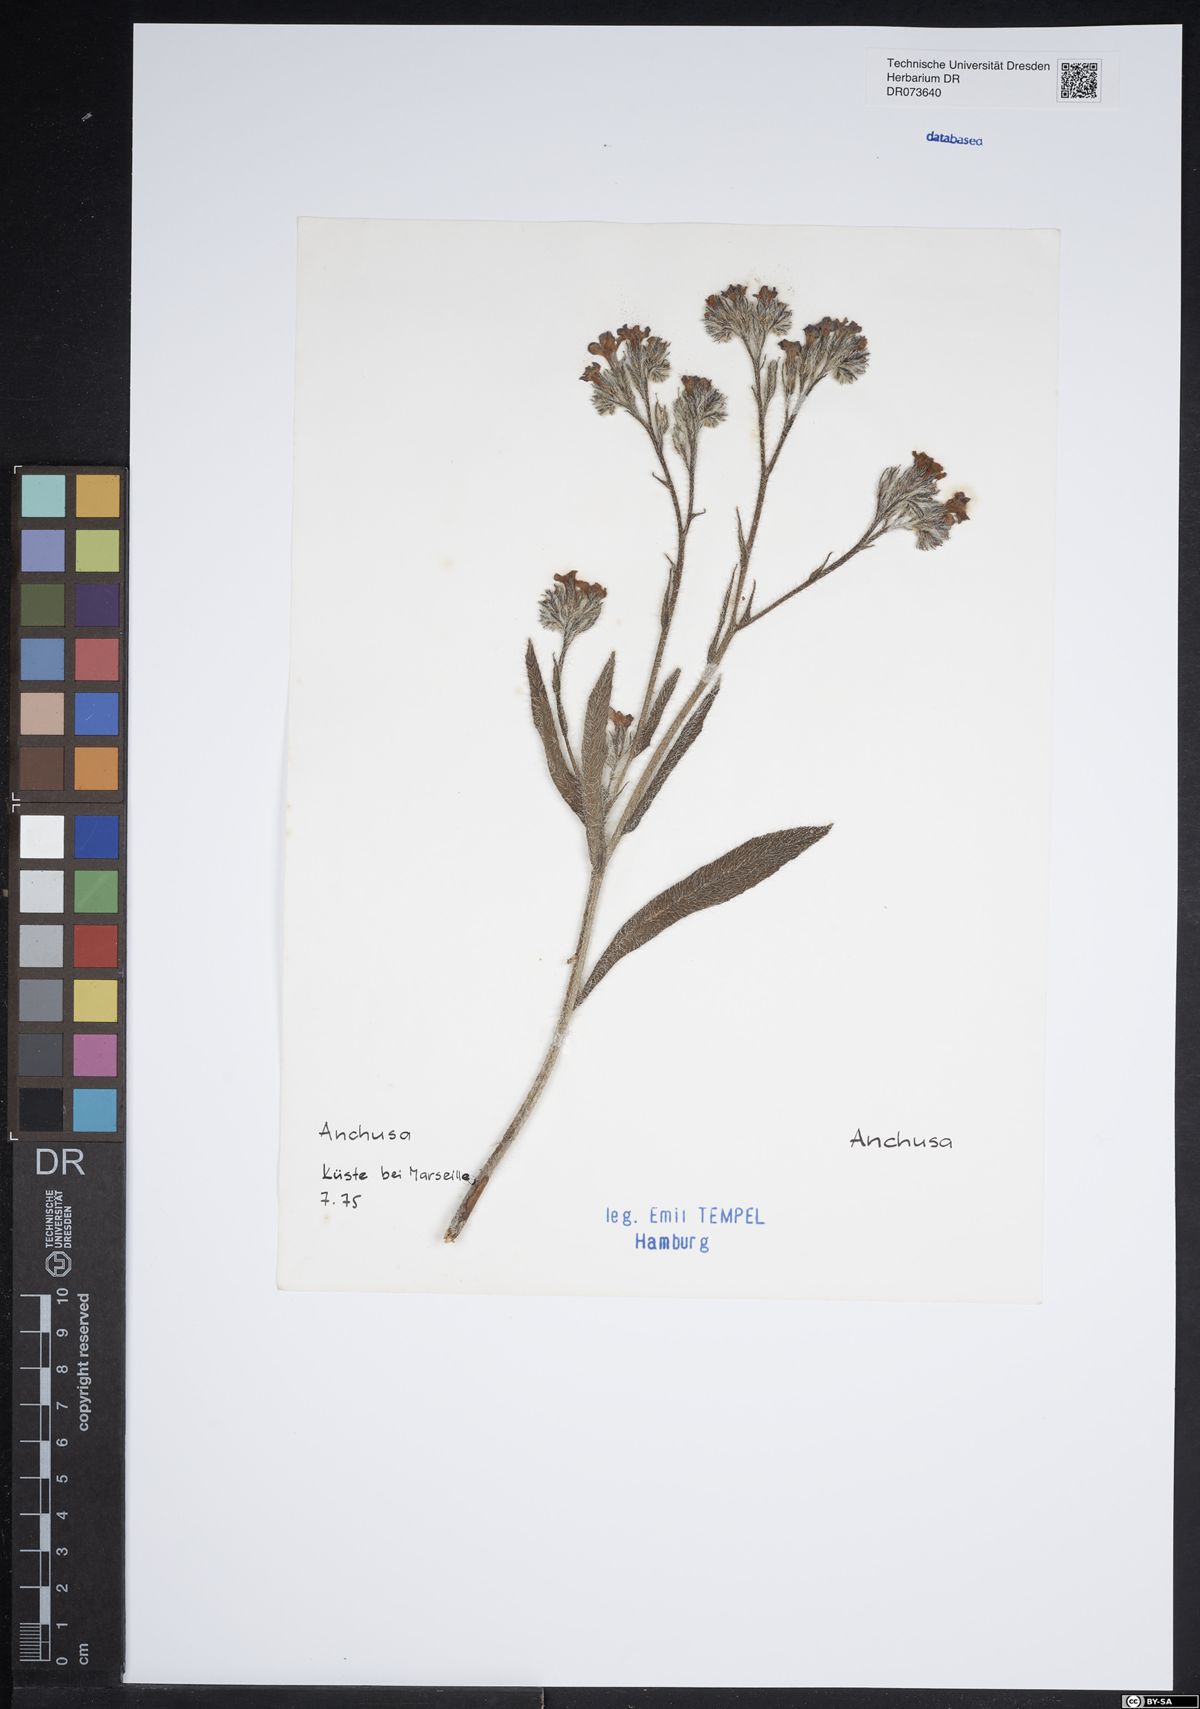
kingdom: Plantae
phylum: Tracheophyta
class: Magnoliopsida
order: Boraginales
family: Boraginaceae
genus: Anchusa
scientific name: Anchusa
